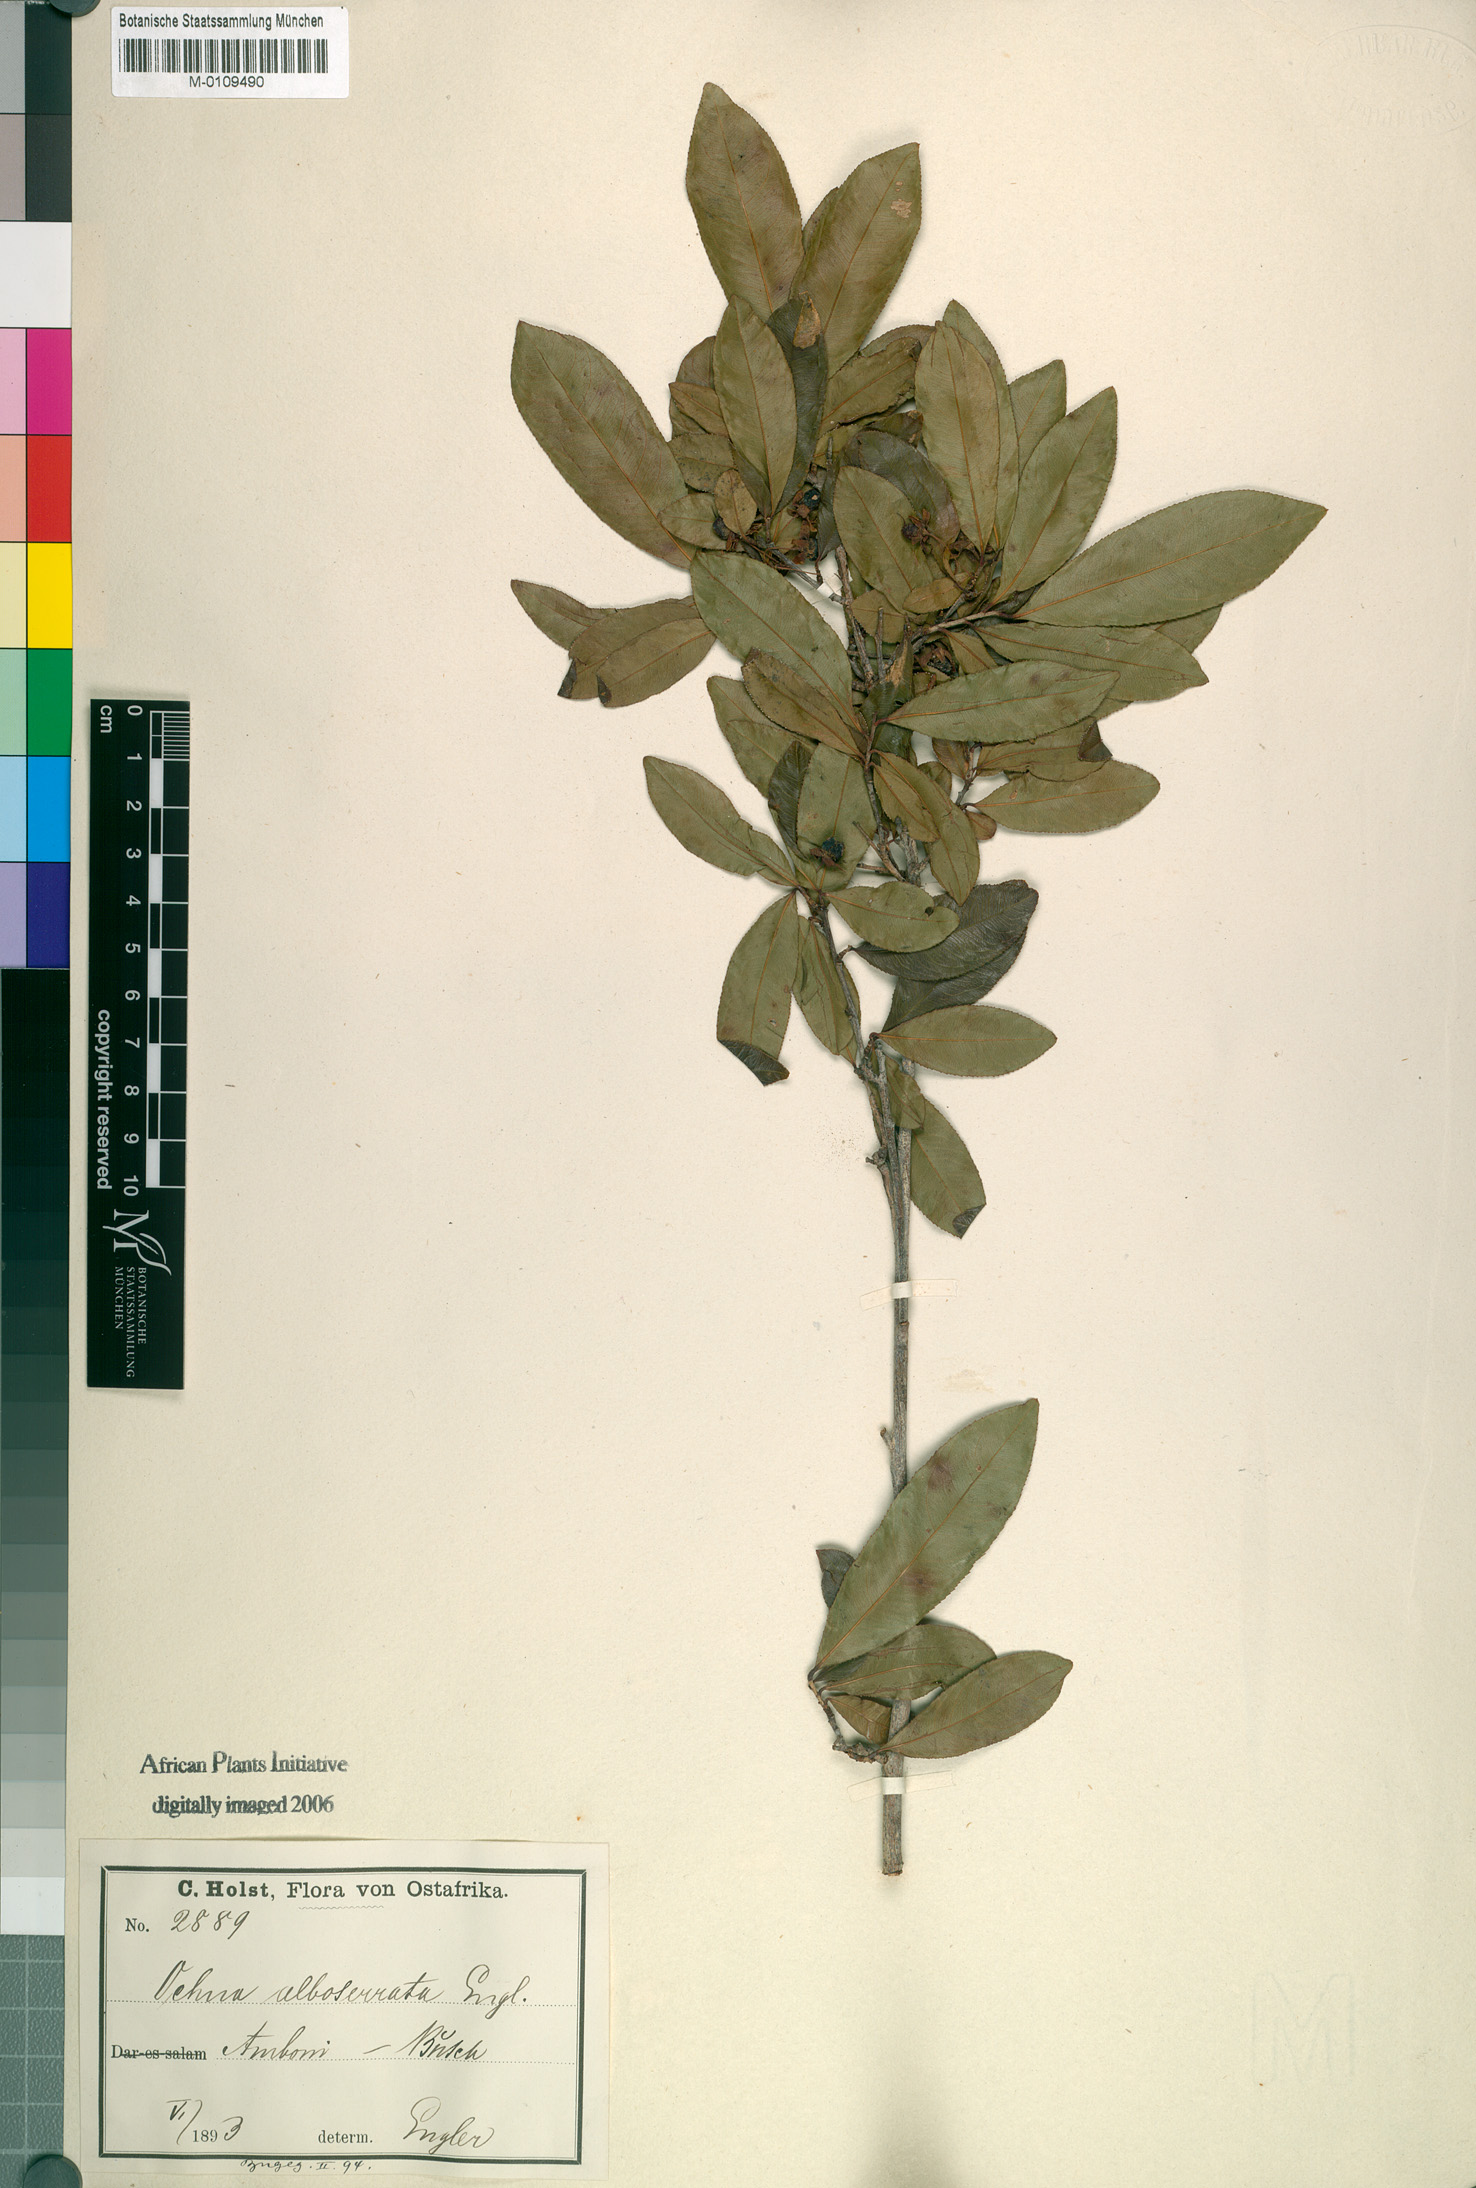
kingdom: Plantae
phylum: Tracheophyta
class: Magnoliopsida
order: Malpighiales
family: Ochnaceae
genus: Brackenridgea
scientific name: Brackenridgea zanguebarica
